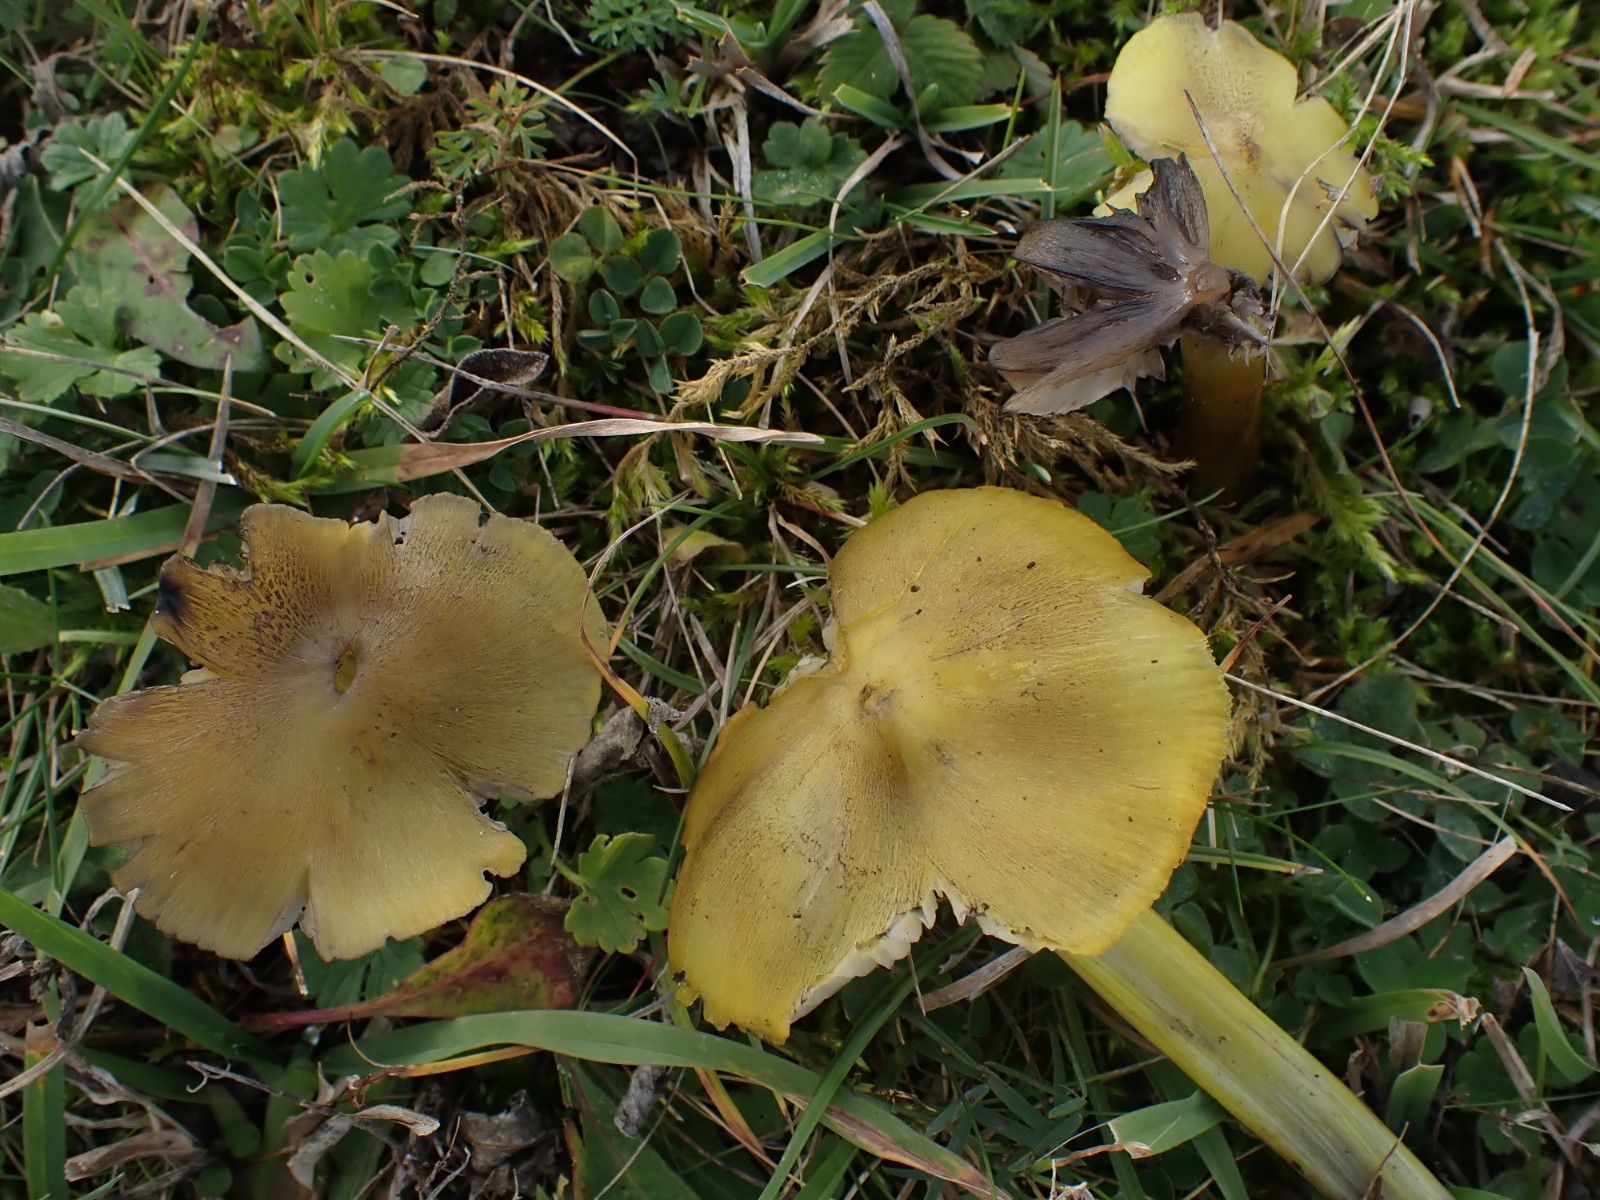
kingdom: Fungi
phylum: Basidiomycota
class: Agaricomycetes
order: Agaricales
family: Hygrophoraceae
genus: Hygrocybe
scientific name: Hygrocybe conica
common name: Blackening wax-cap
